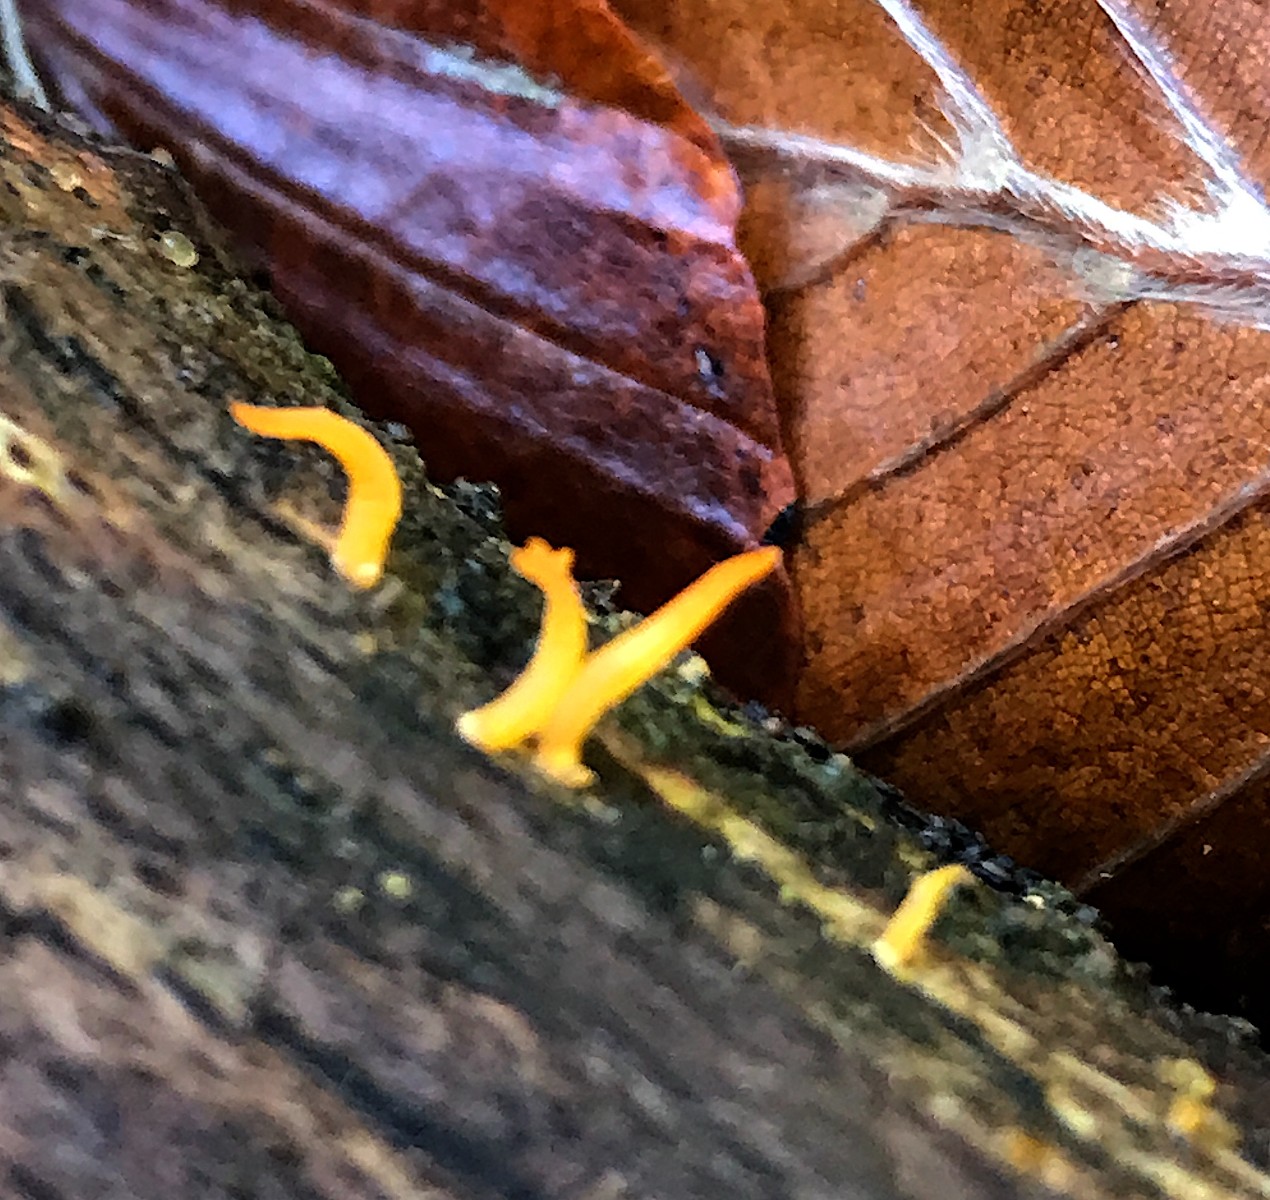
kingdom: Fungi
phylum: Basidiomycota
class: Dacrymycetes
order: Dacrymycetales
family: Dacrymycetaceae
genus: Calocera
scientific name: Calocera cornea
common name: liden guldgaffel
